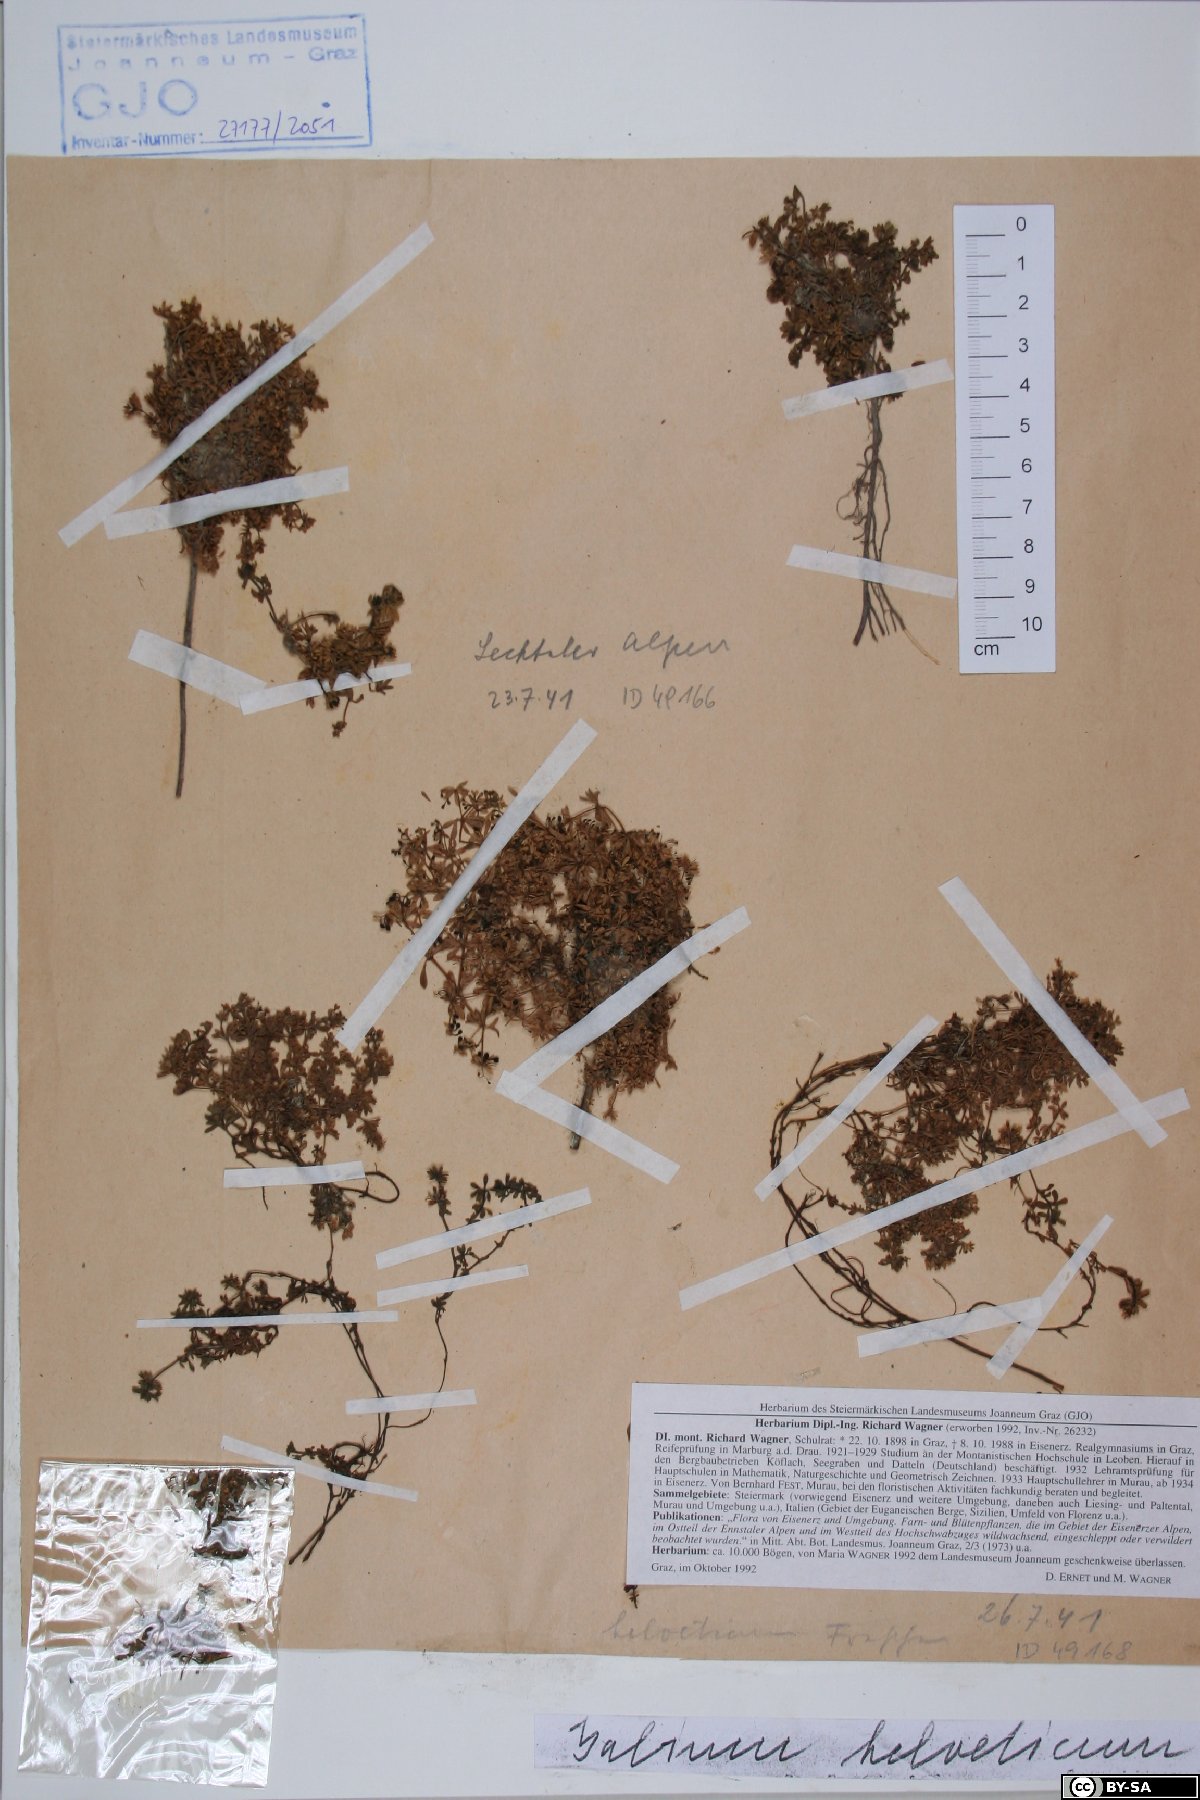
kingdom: Plantae
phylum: Tracheophyta
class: Magnoliopsida
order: Gentianales
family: Rubiaceae
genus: Galium
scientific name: Galium saxatile
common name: Heath bedstraw
